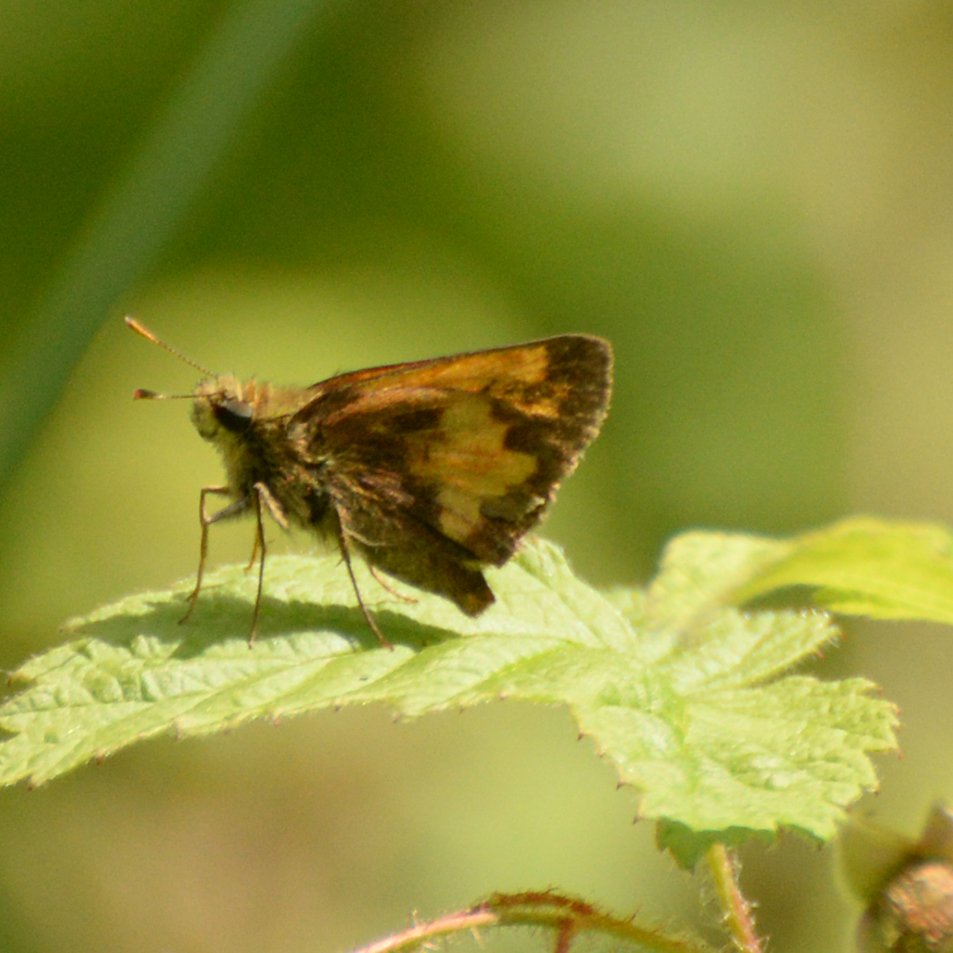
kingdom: Animalia
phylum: Arthropoda
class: Insecta
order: Lepidoptera
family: Hesperiidae
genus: Lon
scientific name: Lon hobomok
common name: Hobomok Skipper
